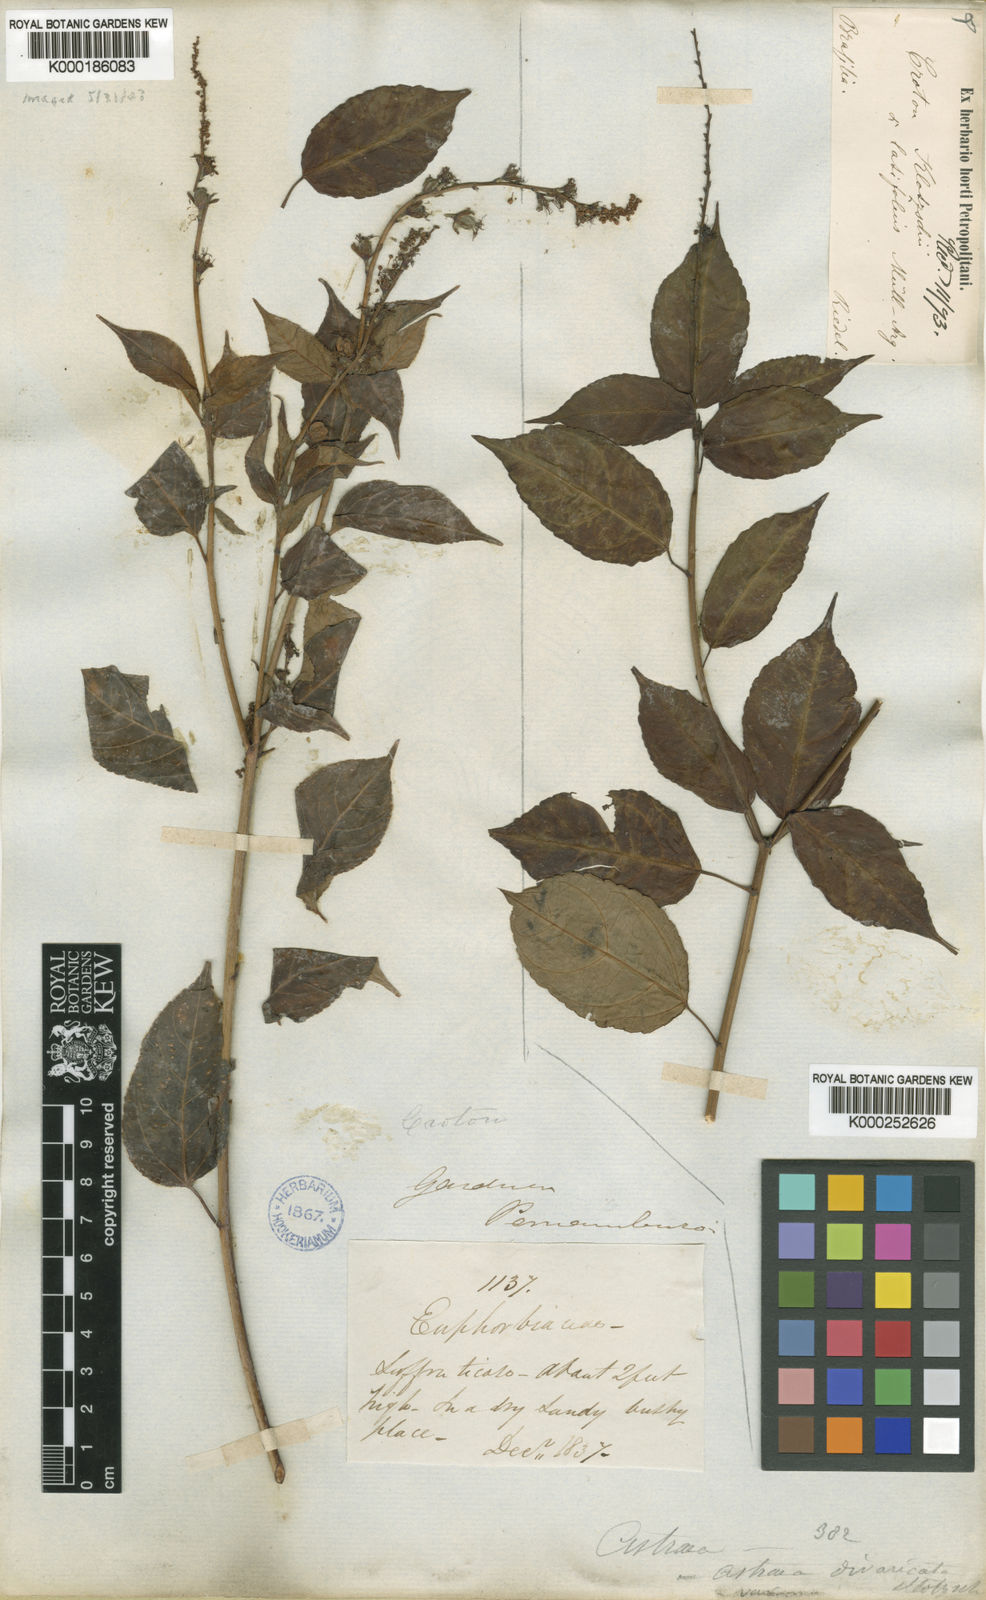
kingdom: Plantae
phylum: Tracheophyta
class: Magnoliopsida
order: Malpighiales
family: Euphorbiaceae
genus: Croton
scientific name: Croton
